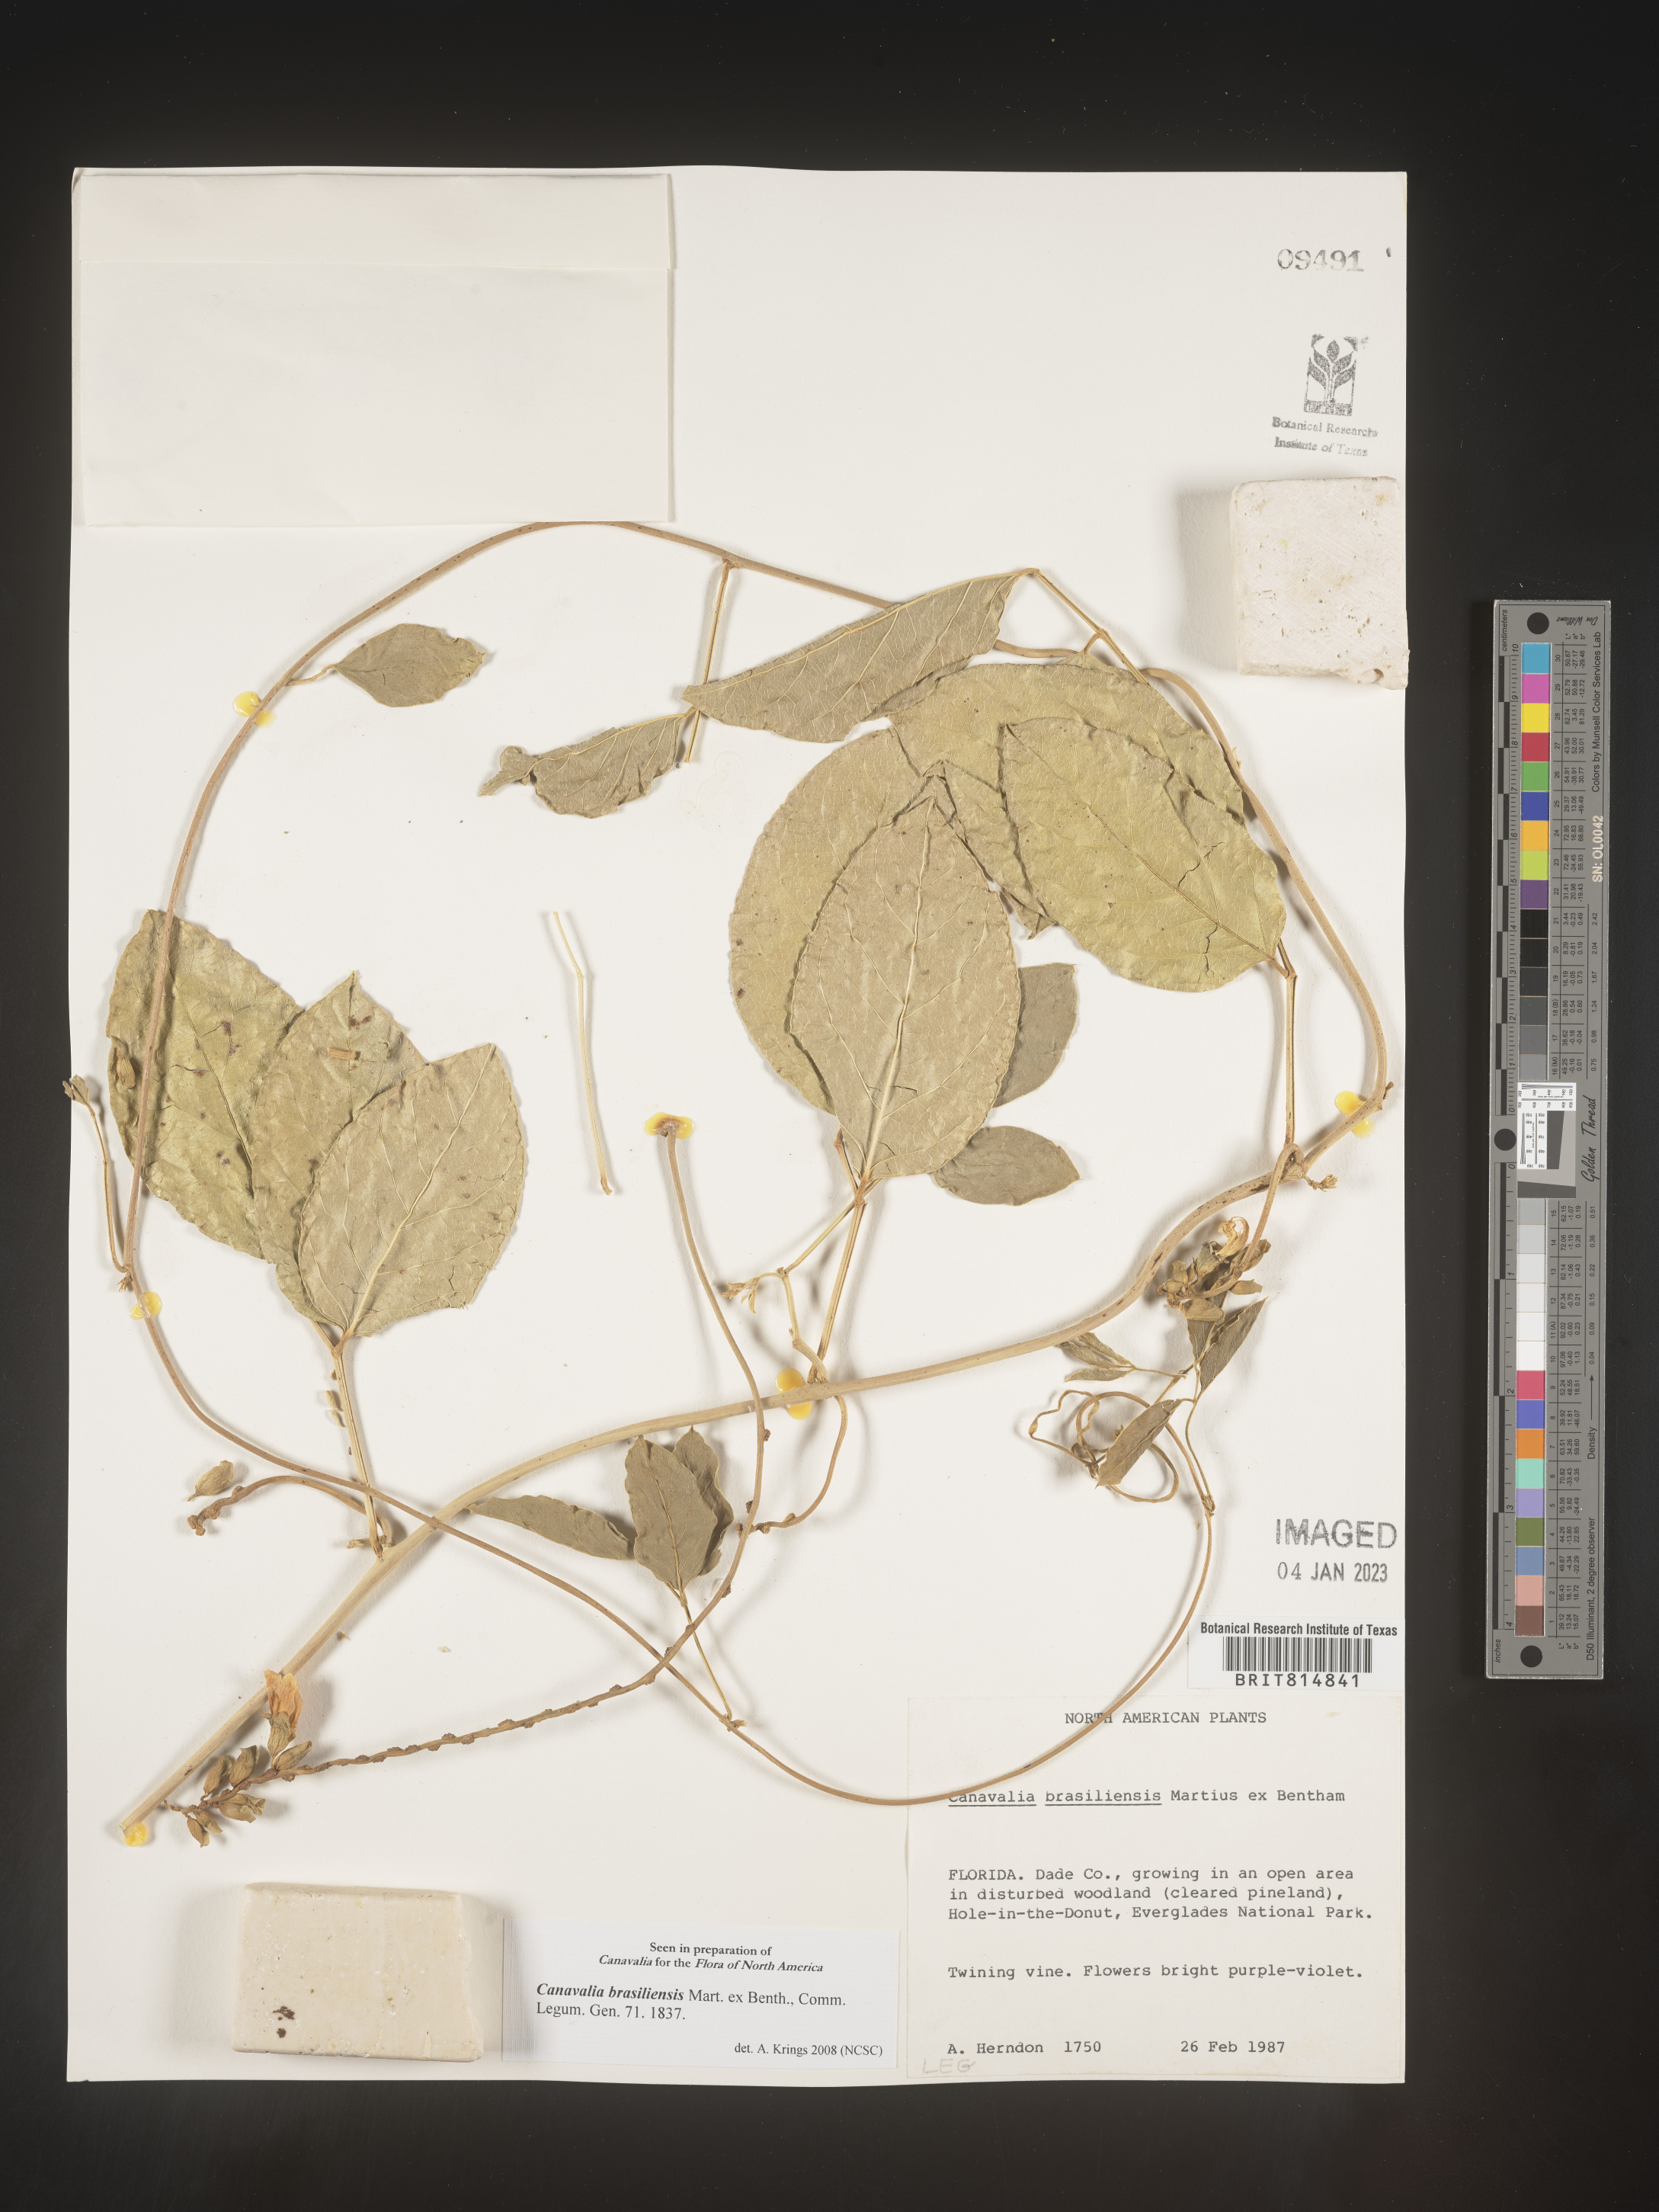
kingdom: Plantae
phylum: Tracheophyta
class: Magnoliopsida
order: Fabales
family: Fabaceae
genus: Canavalia
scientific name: Canavalia
